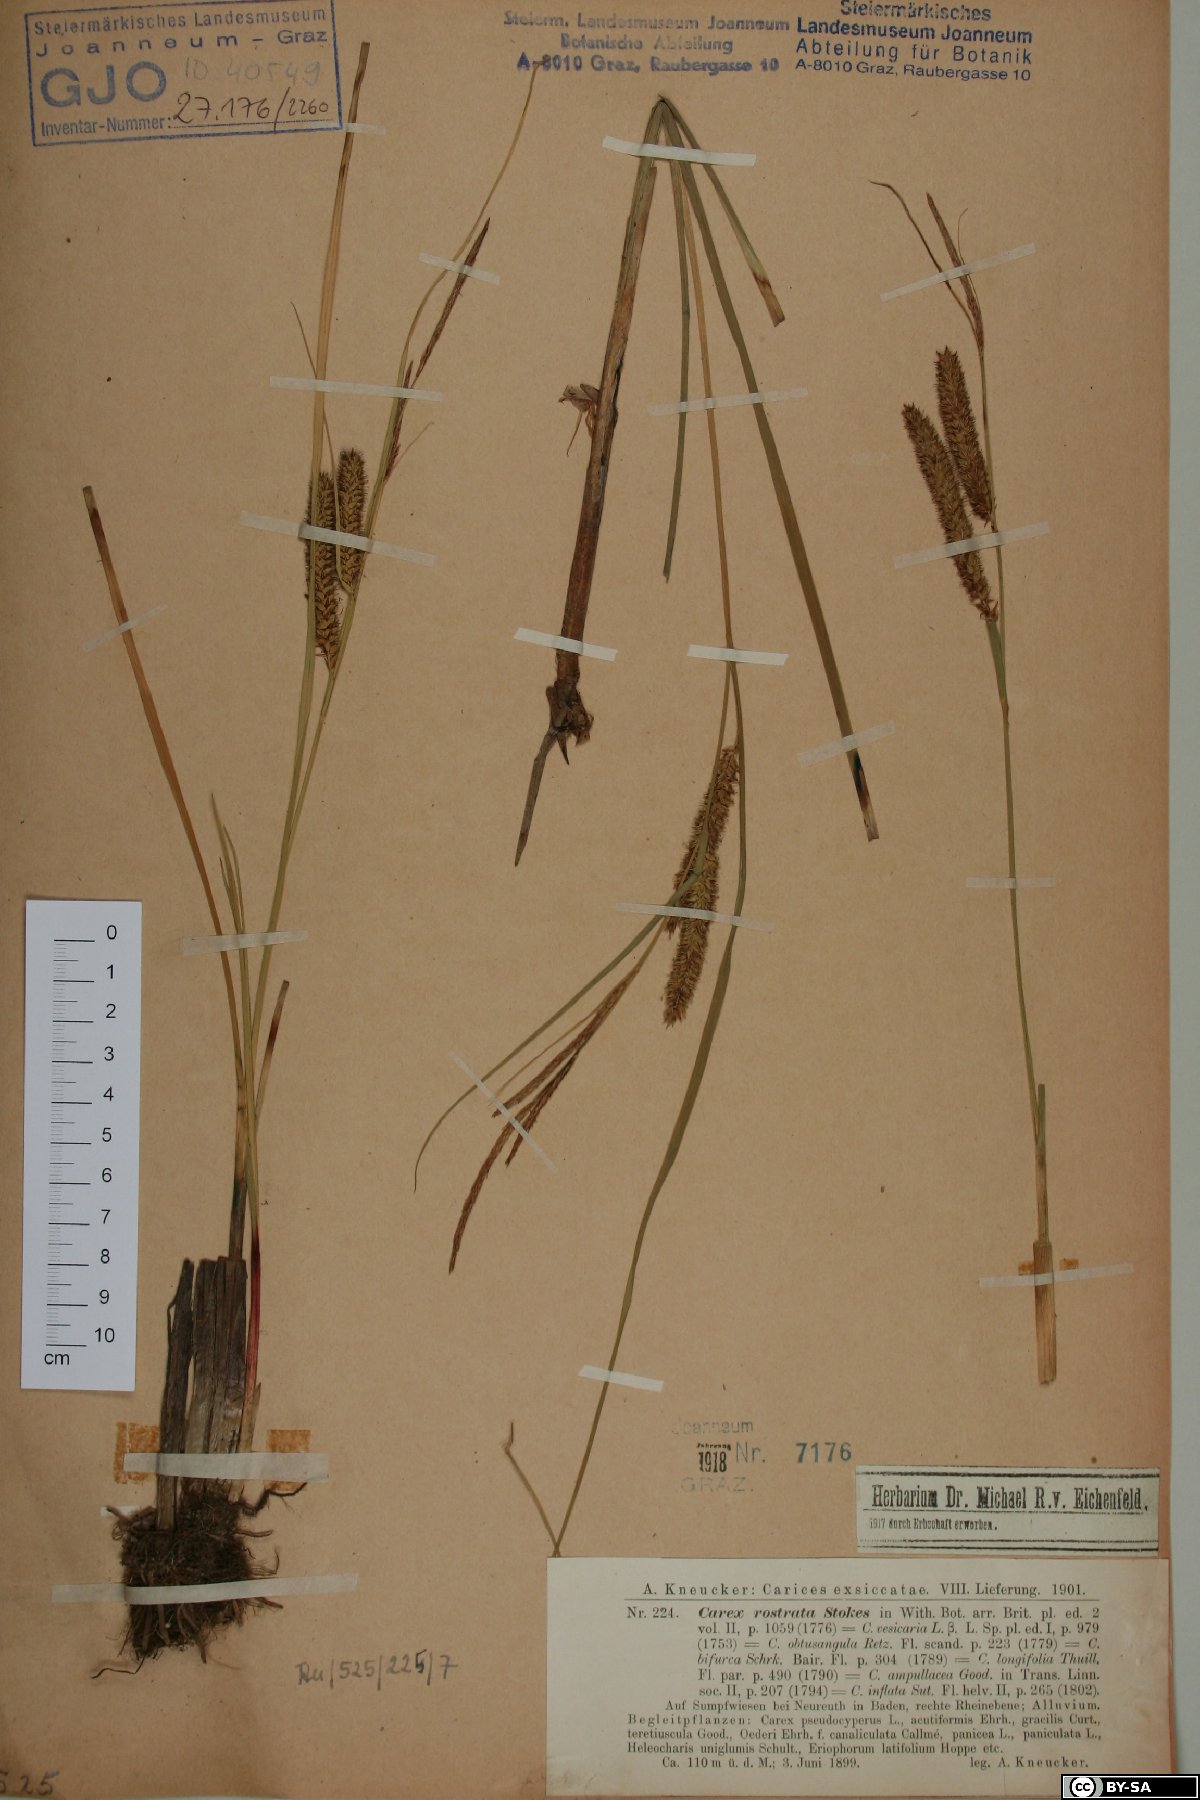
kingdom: Plantae
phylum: Tracheophyta
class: Liliopsida
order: Poales
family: Cyperaceae
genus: Carex
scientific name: Carex rostrata
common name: Bottle sedge
